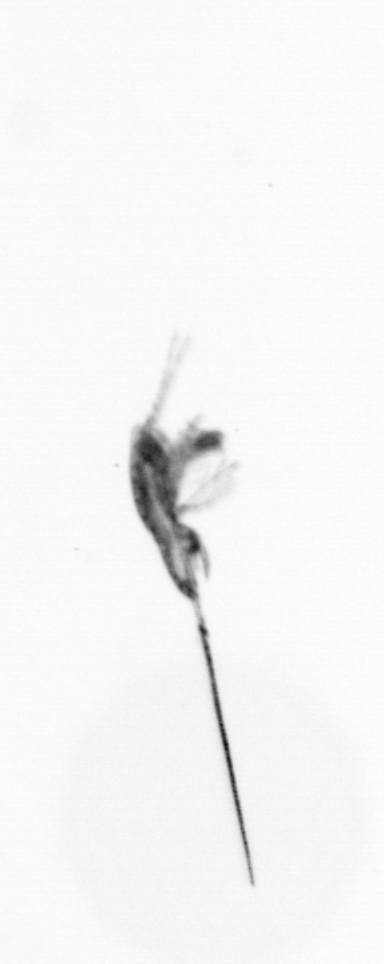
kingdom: Animalia
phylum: Arthropoda
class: Copepoda
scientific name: Copepoda
